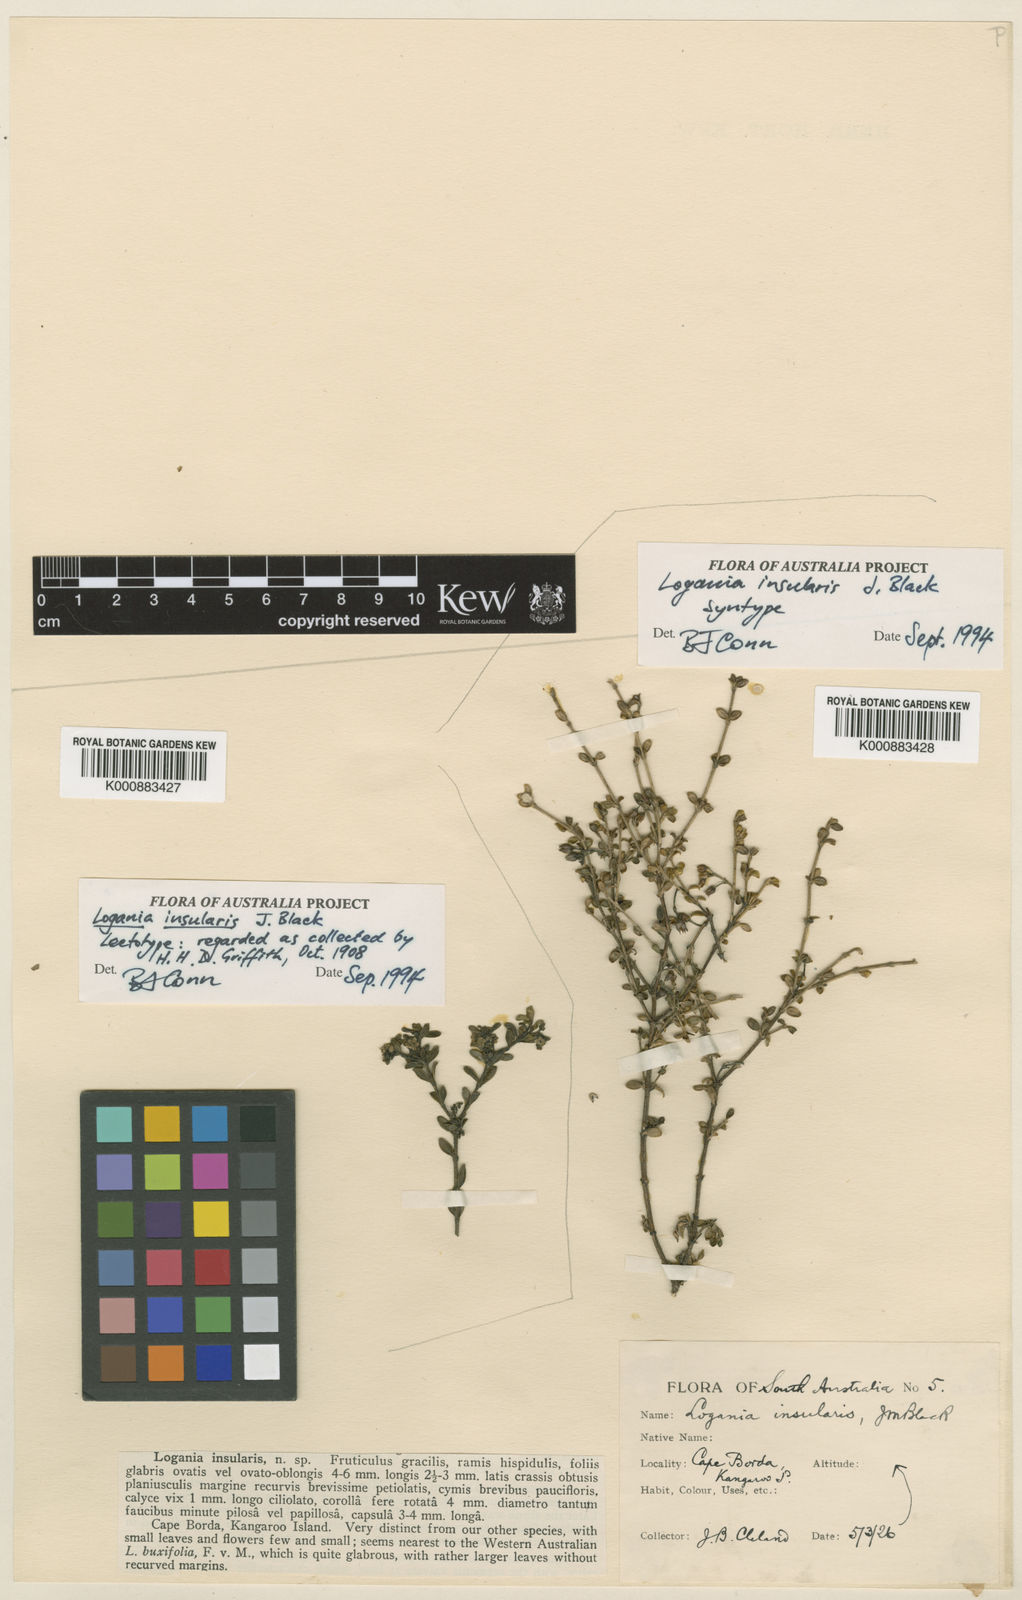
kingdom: Plantae
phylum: Tracheophyta
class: Magnoliopsida
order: Gentianales
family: Loganiaceae
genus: Logania
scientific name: Logania insularis
